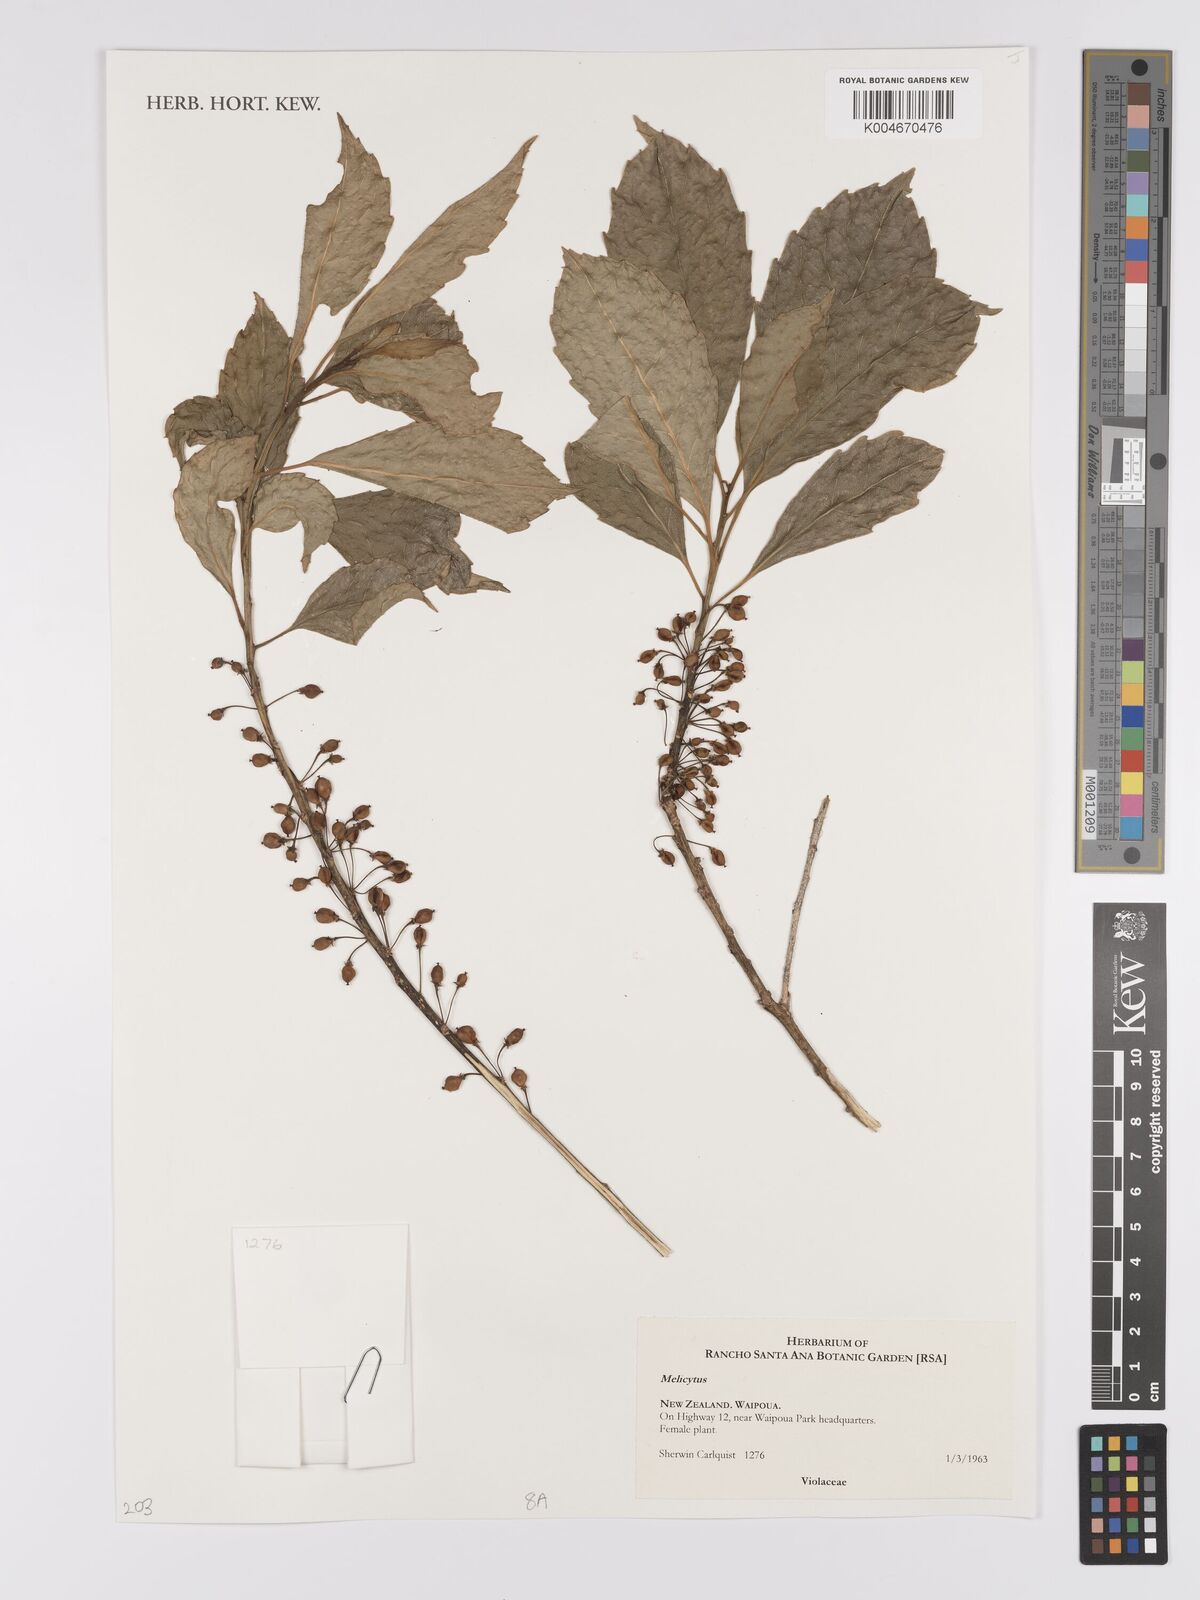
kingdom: Plantae
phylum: Tracheophyta
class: Magnoliopsida
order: Malpighiales
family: Violaceae
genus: Melicytus
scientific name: Melicytus
